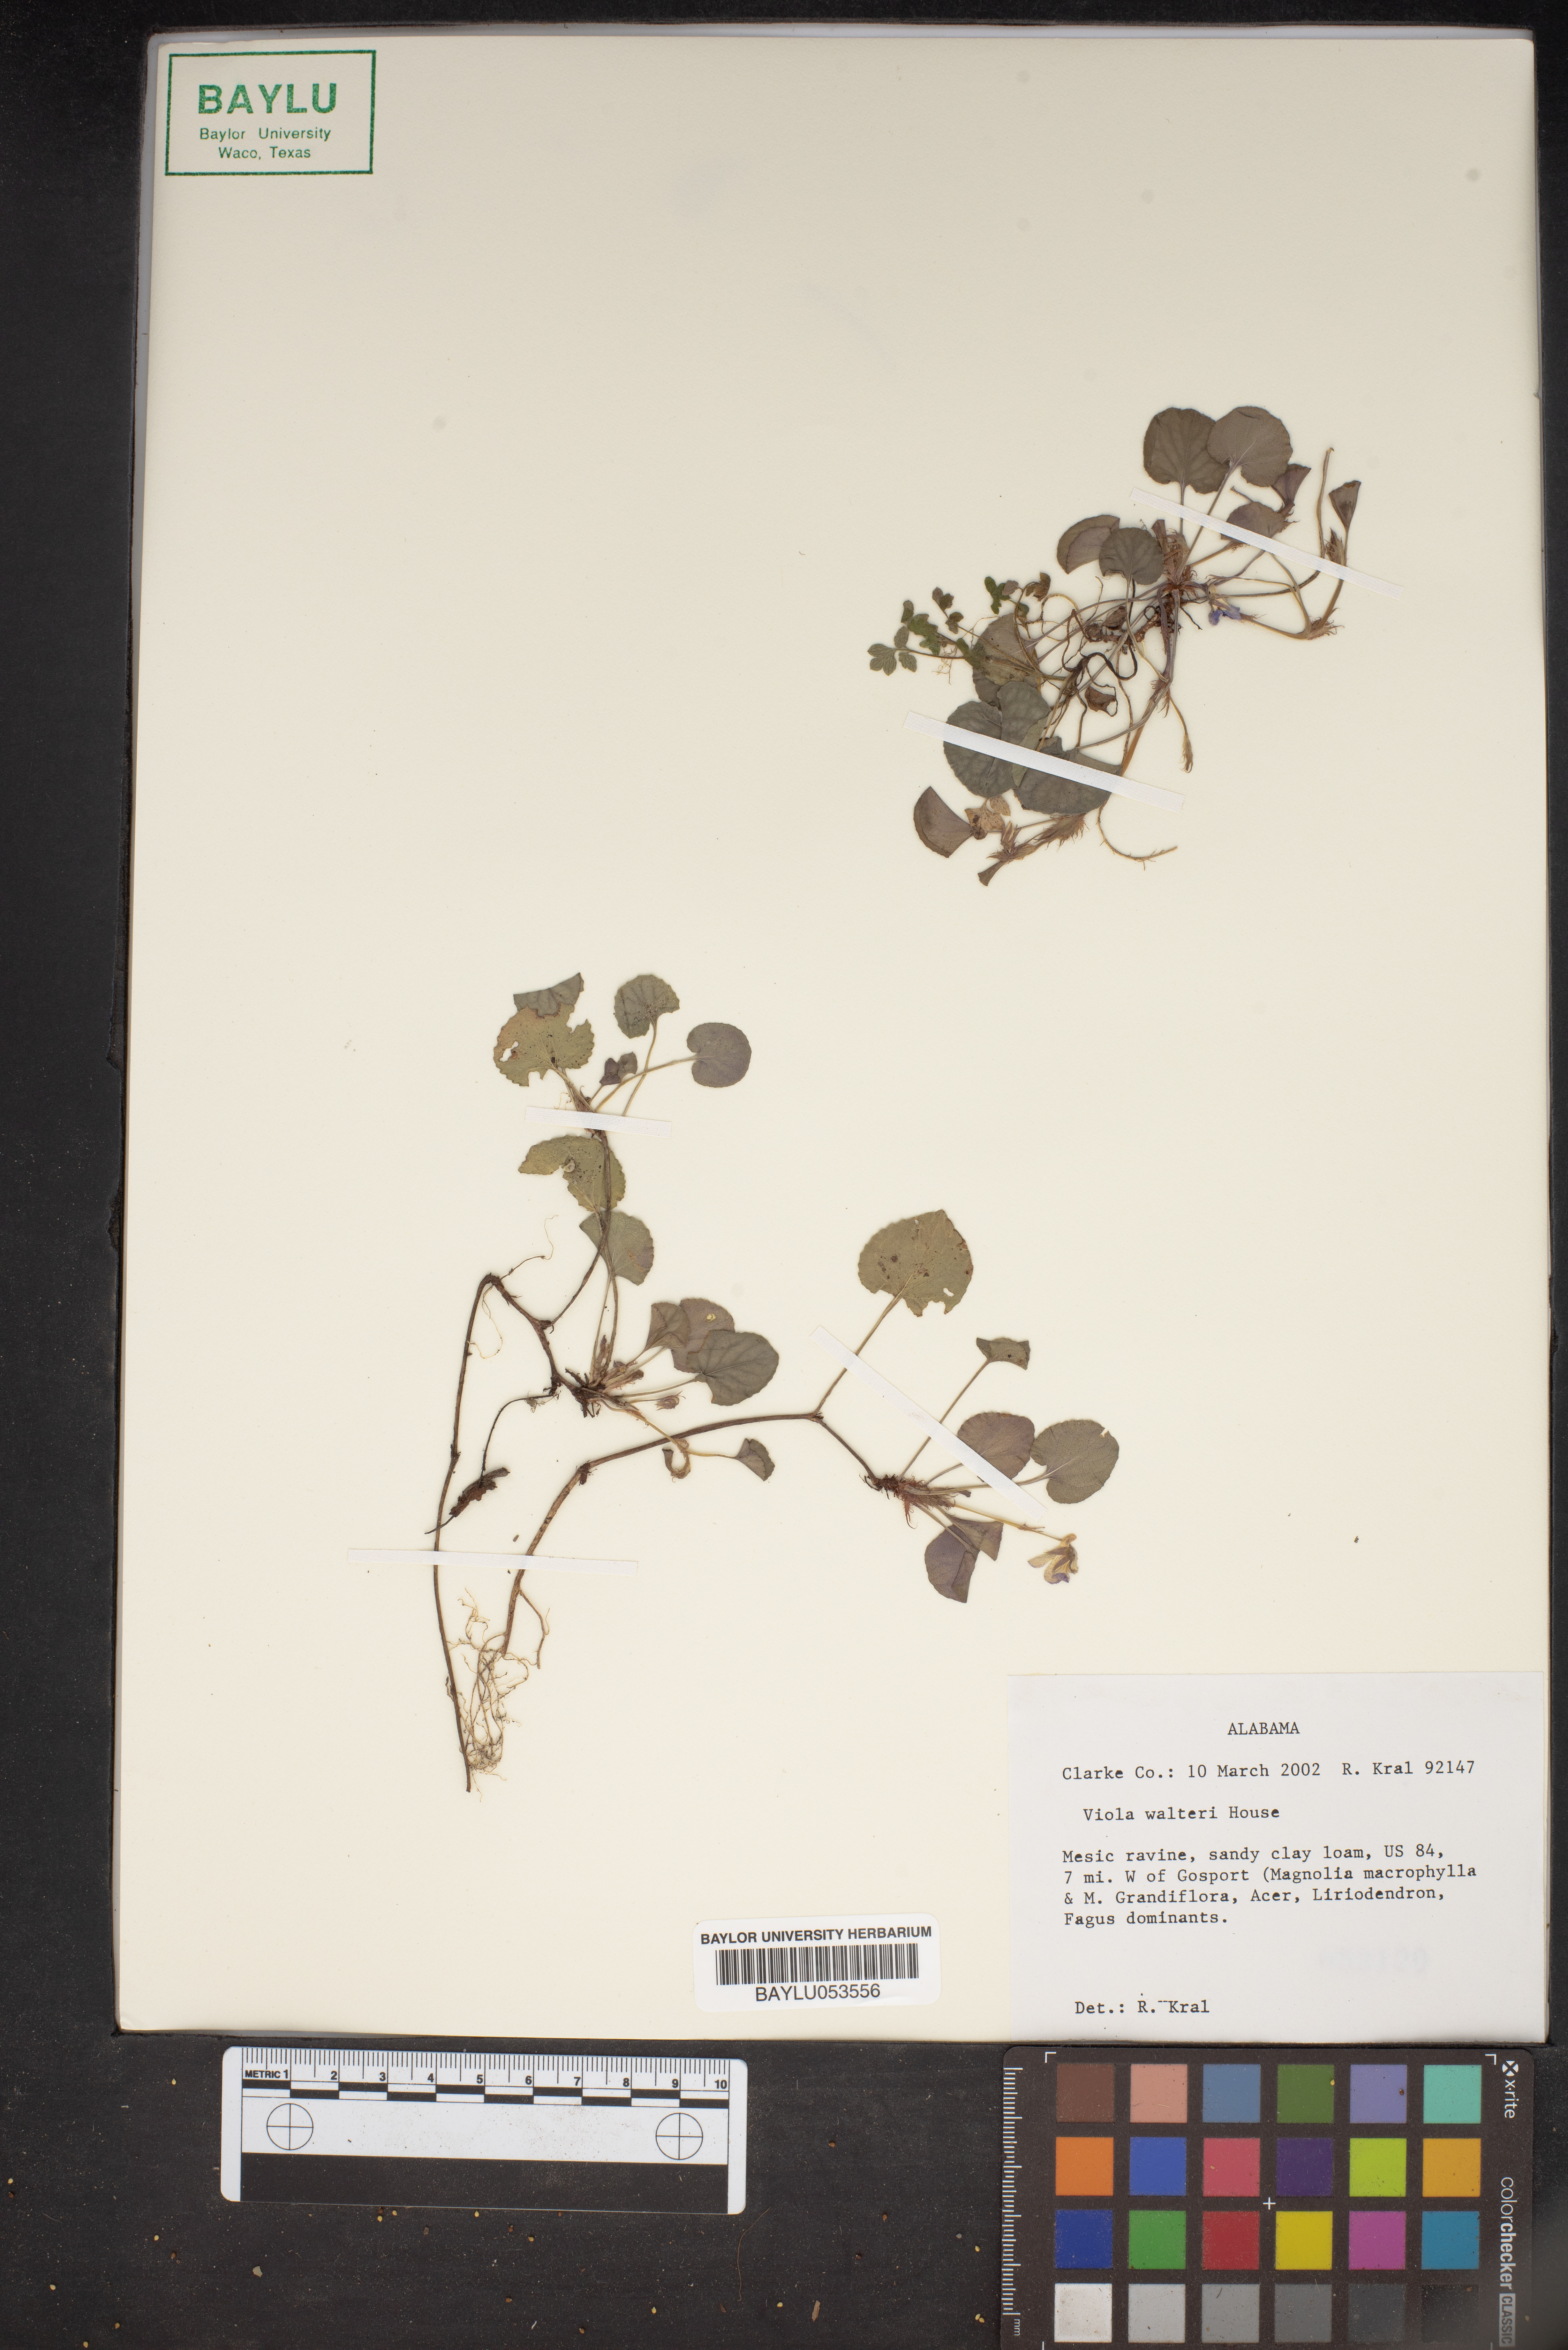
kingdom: Plantae
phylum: Tracheophyta
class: Magnoliopsida
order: Malpighiales
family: Violaceae
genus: Viola
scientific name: Viola walteri
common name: Prostrate southern violet
